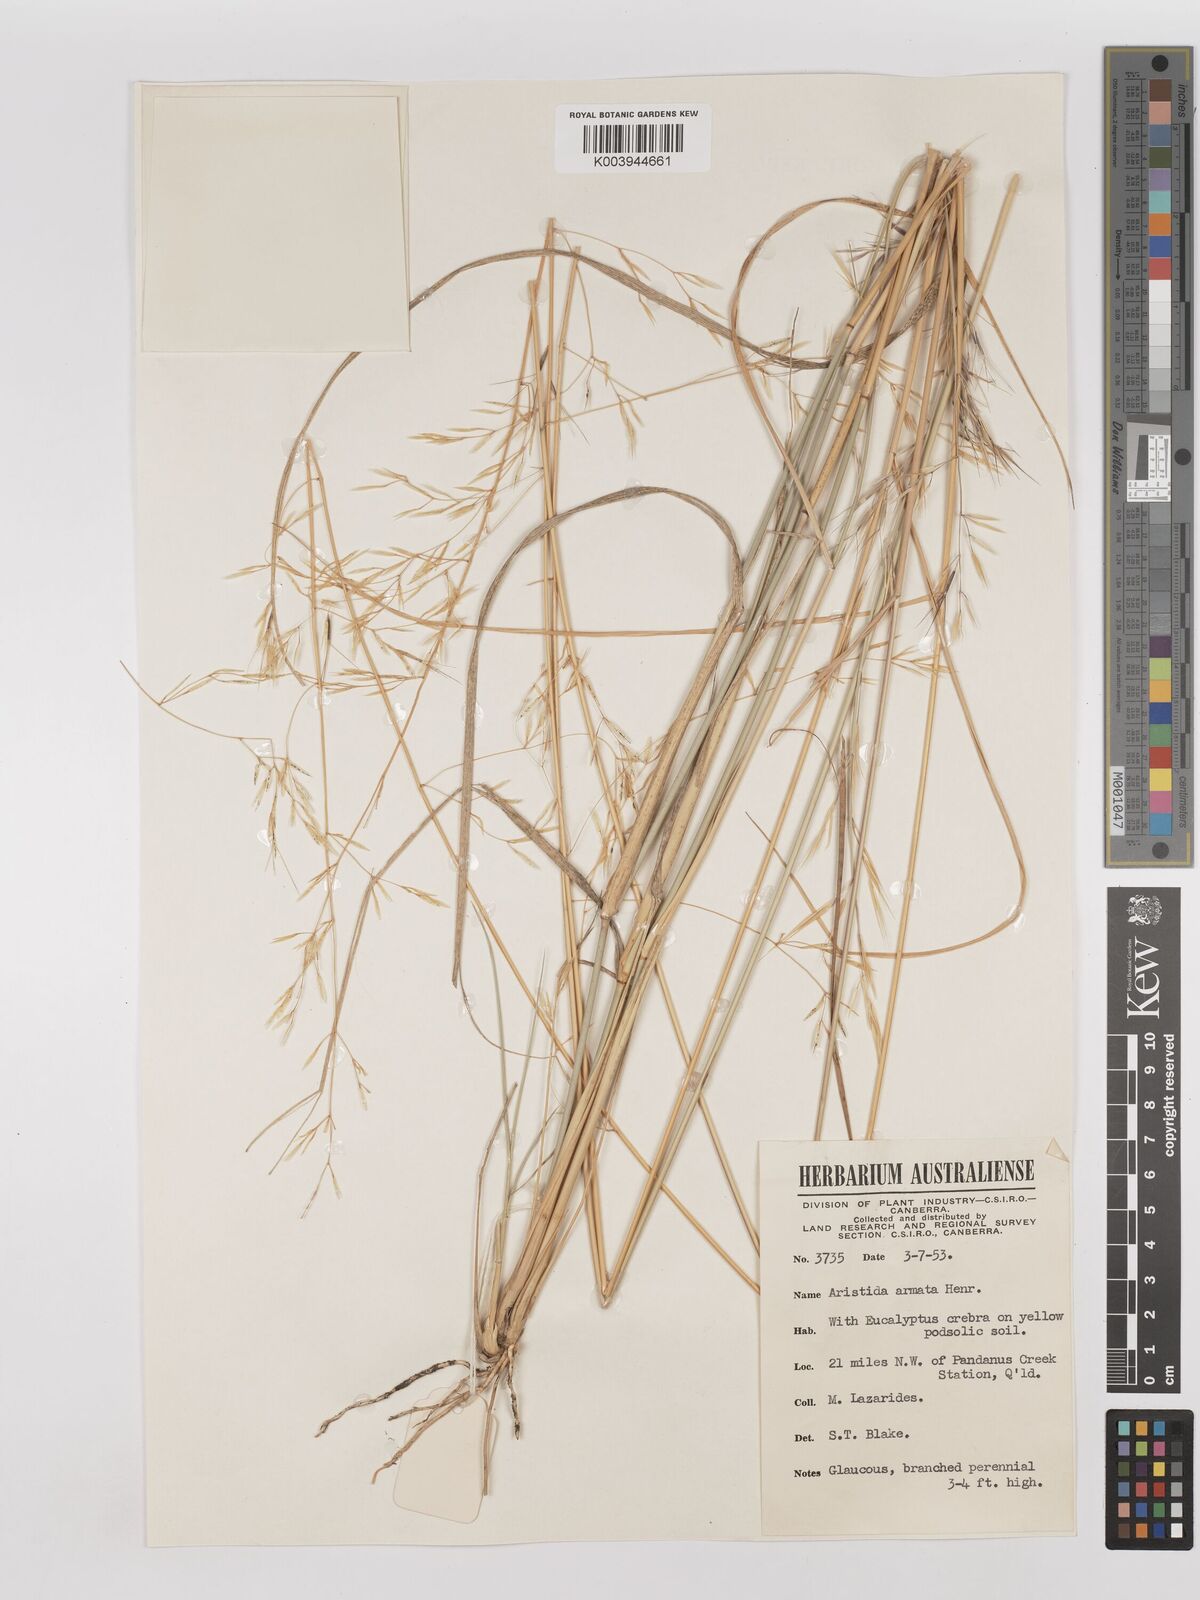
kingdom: Plantae
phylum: Tracheophyta
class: Liliopsida
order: Poales
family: Poaceae
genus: Aristida
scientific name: Aristida calycina
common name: Dark wire grass
